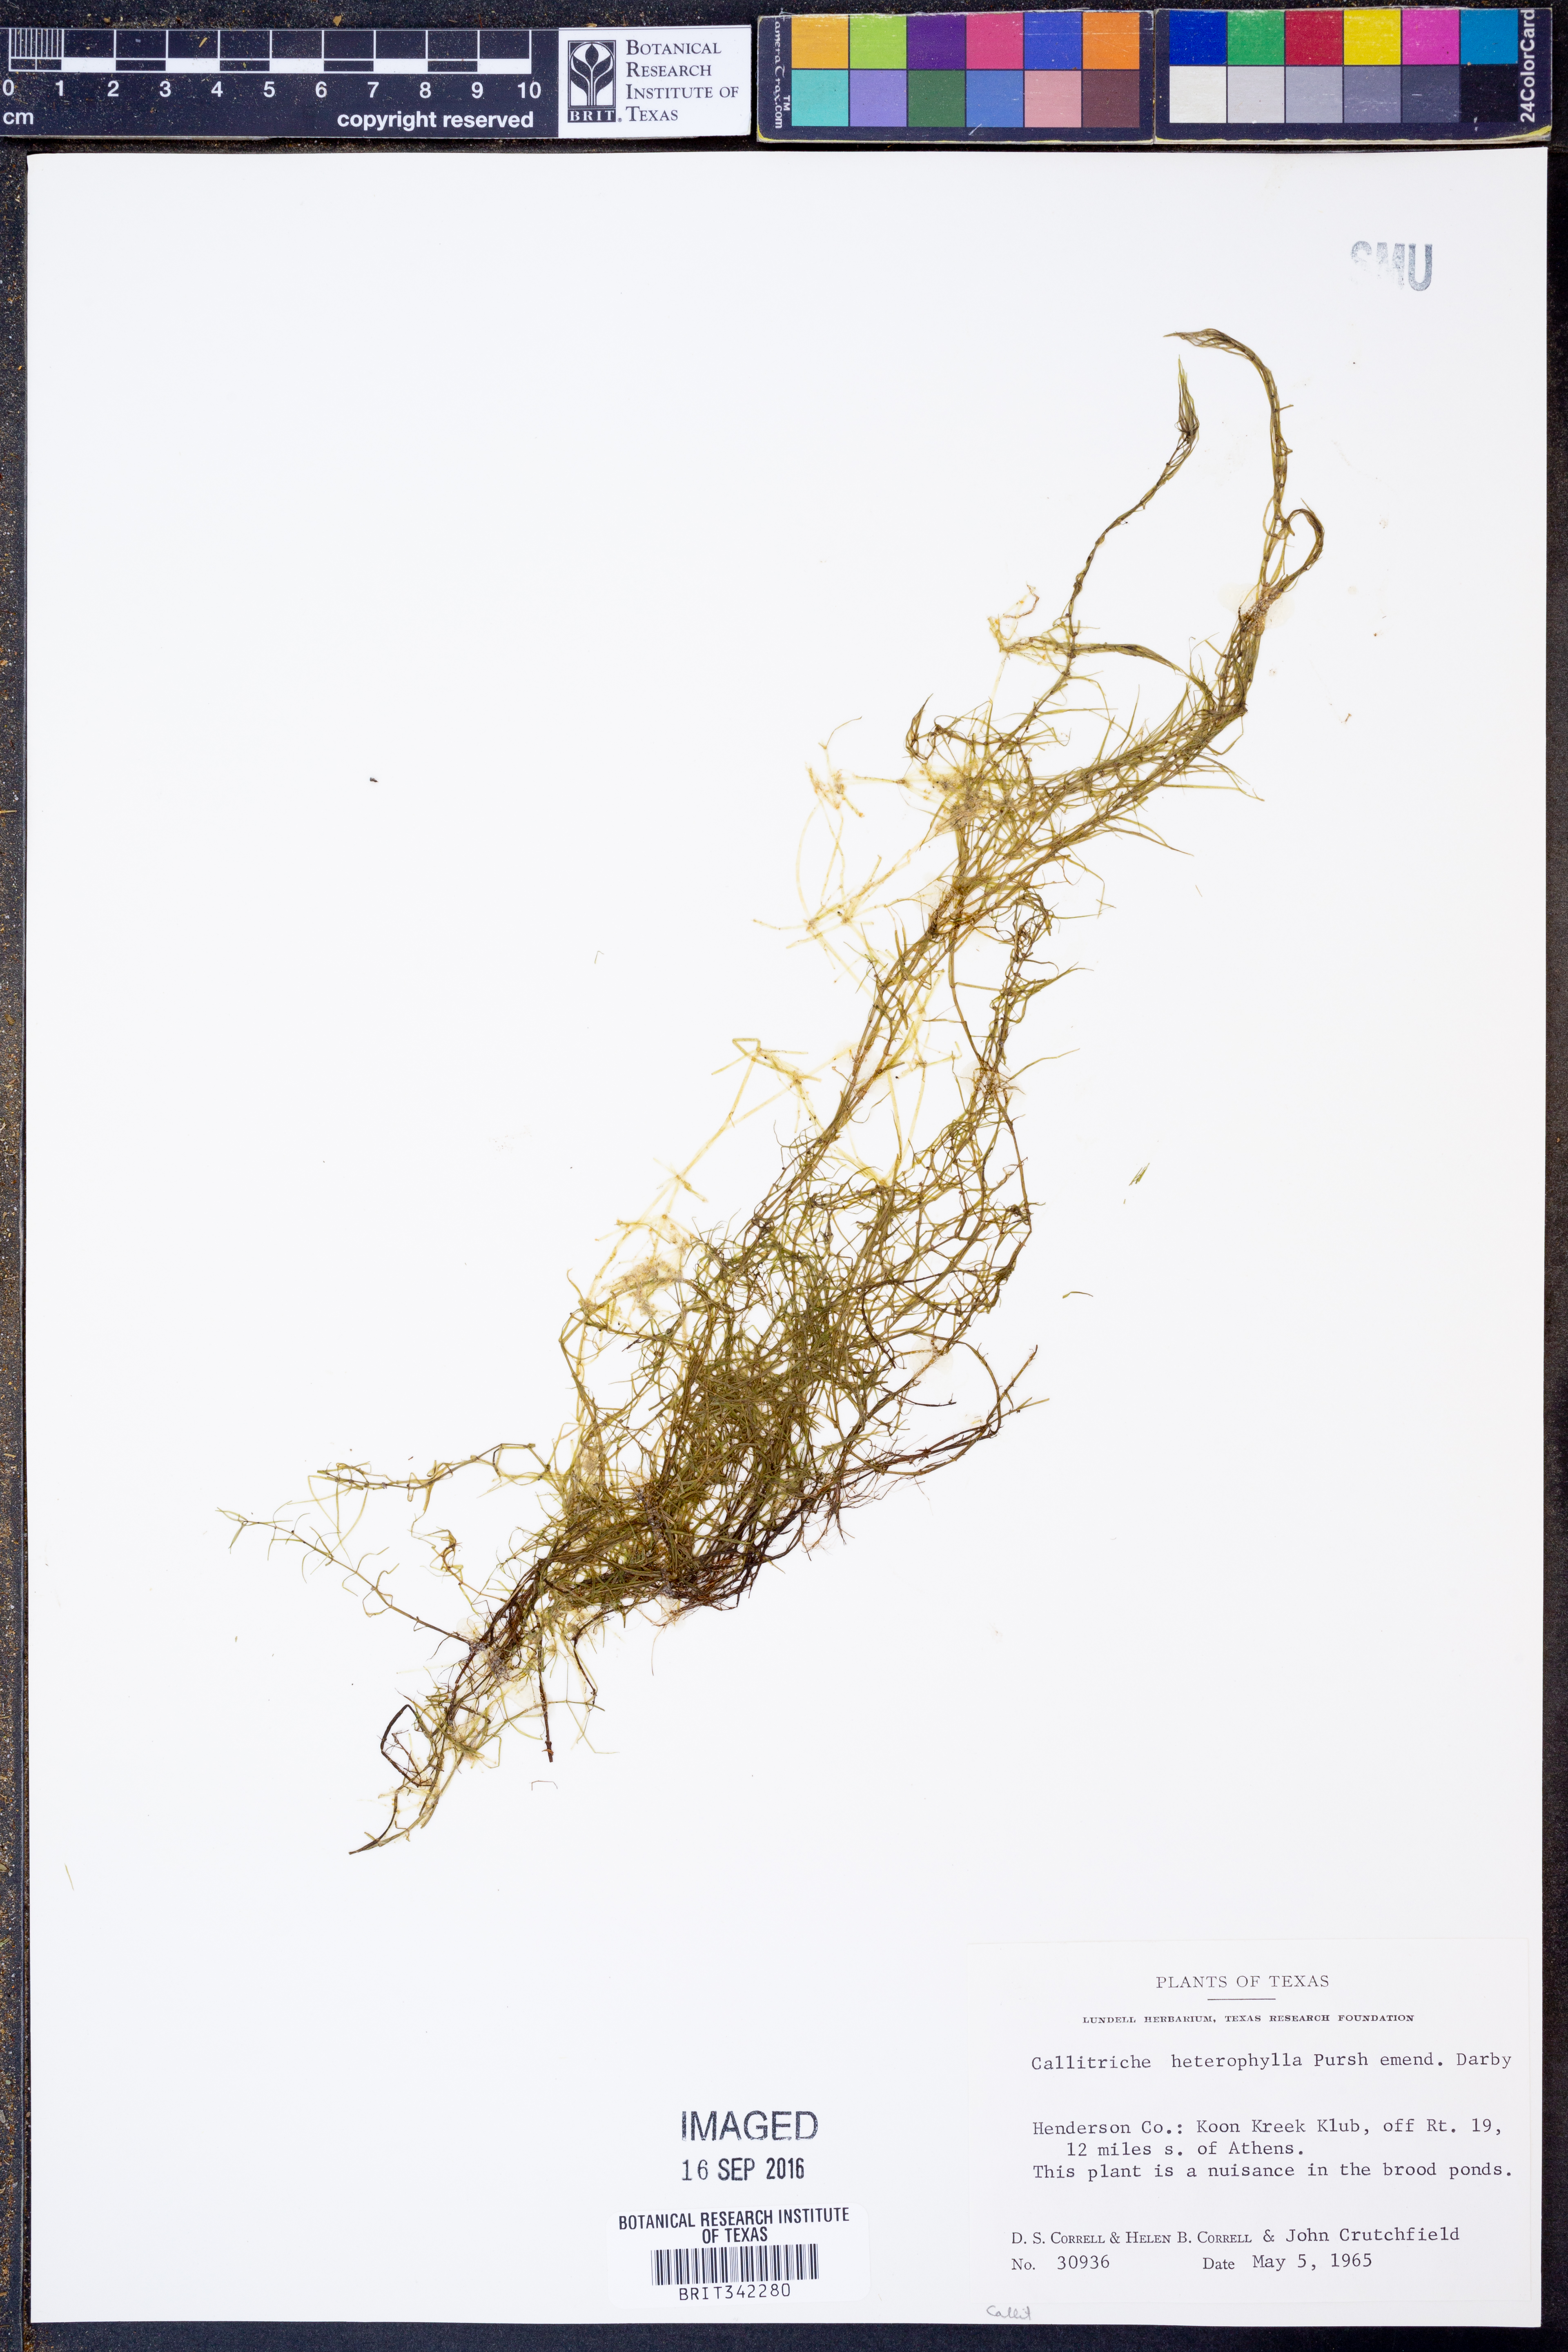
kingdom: Plantae
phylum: Tracheophyta
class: Magnoliopsida
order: Lamiales
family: Plantaginaceae
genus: Callitriche
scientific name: Callitriche heterophylla
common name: Two-headed water-starwort
